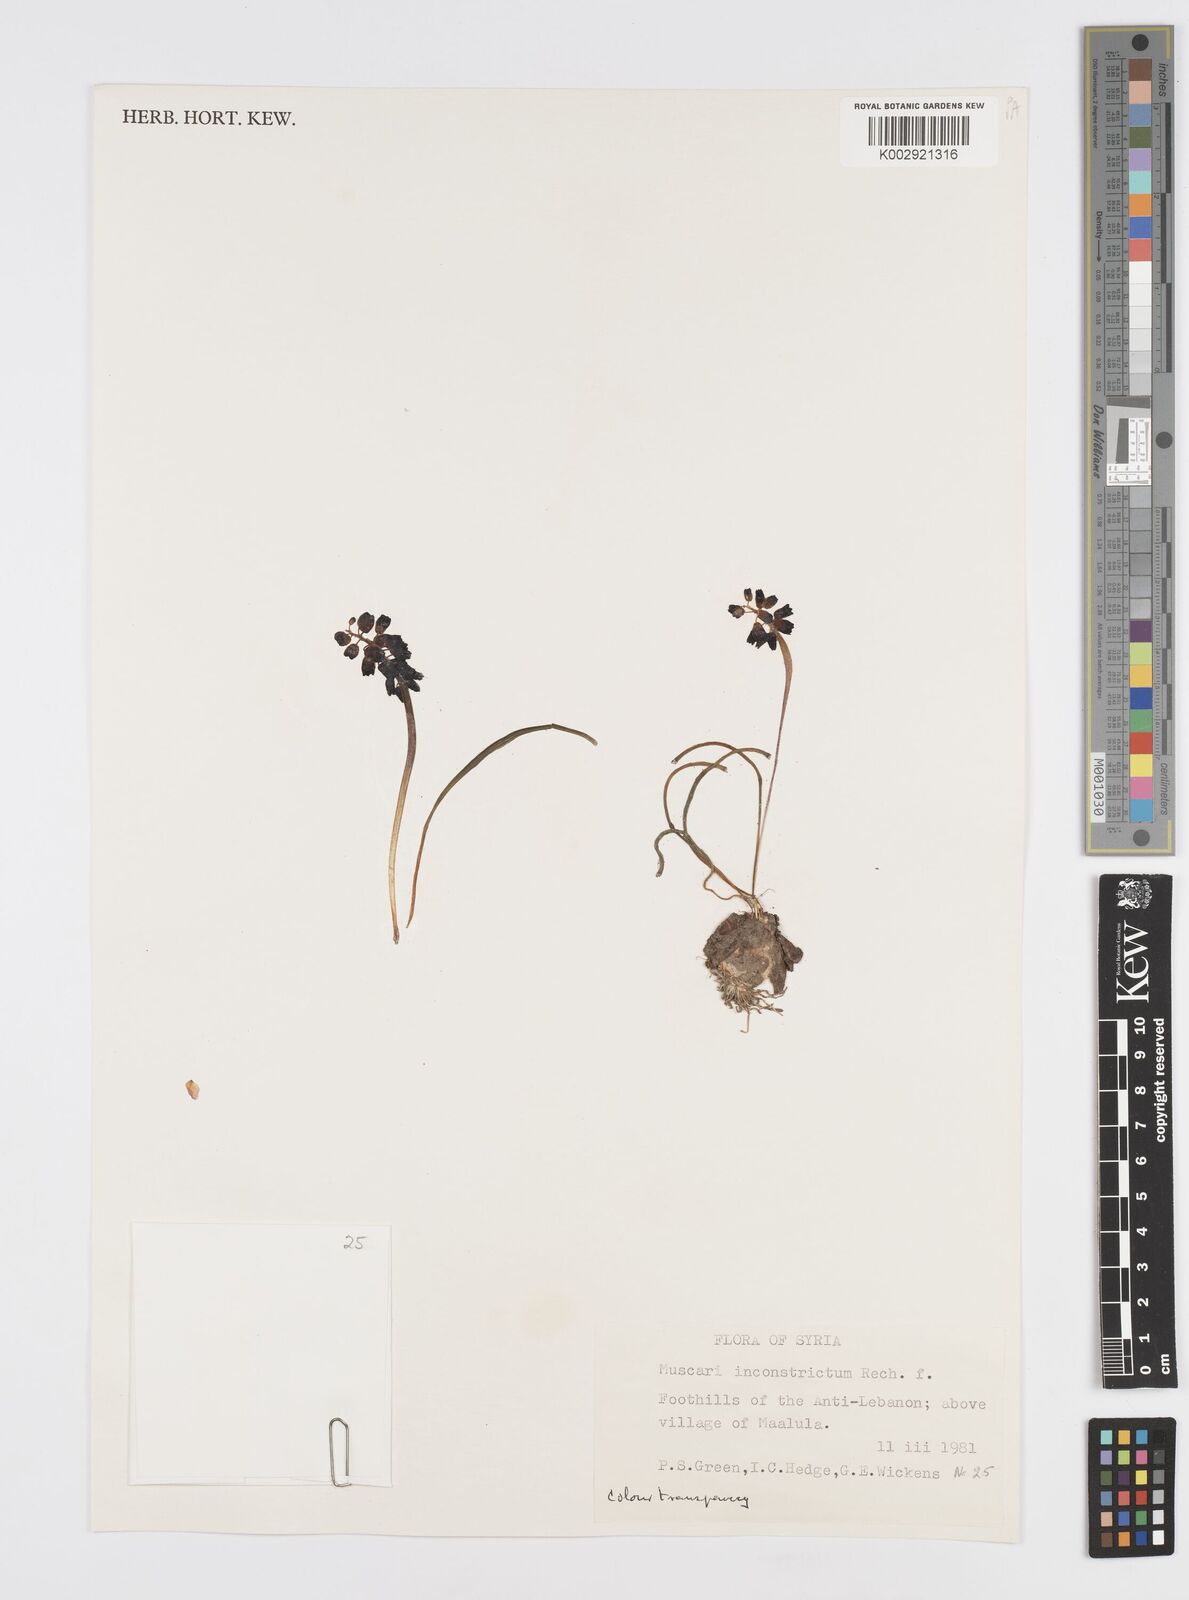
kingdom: Plantae
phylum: Tracheophyta
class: Liliopsida
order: Asparagales
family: Asparagaceae
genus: Muscari
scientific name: Muscari inconstrictum
